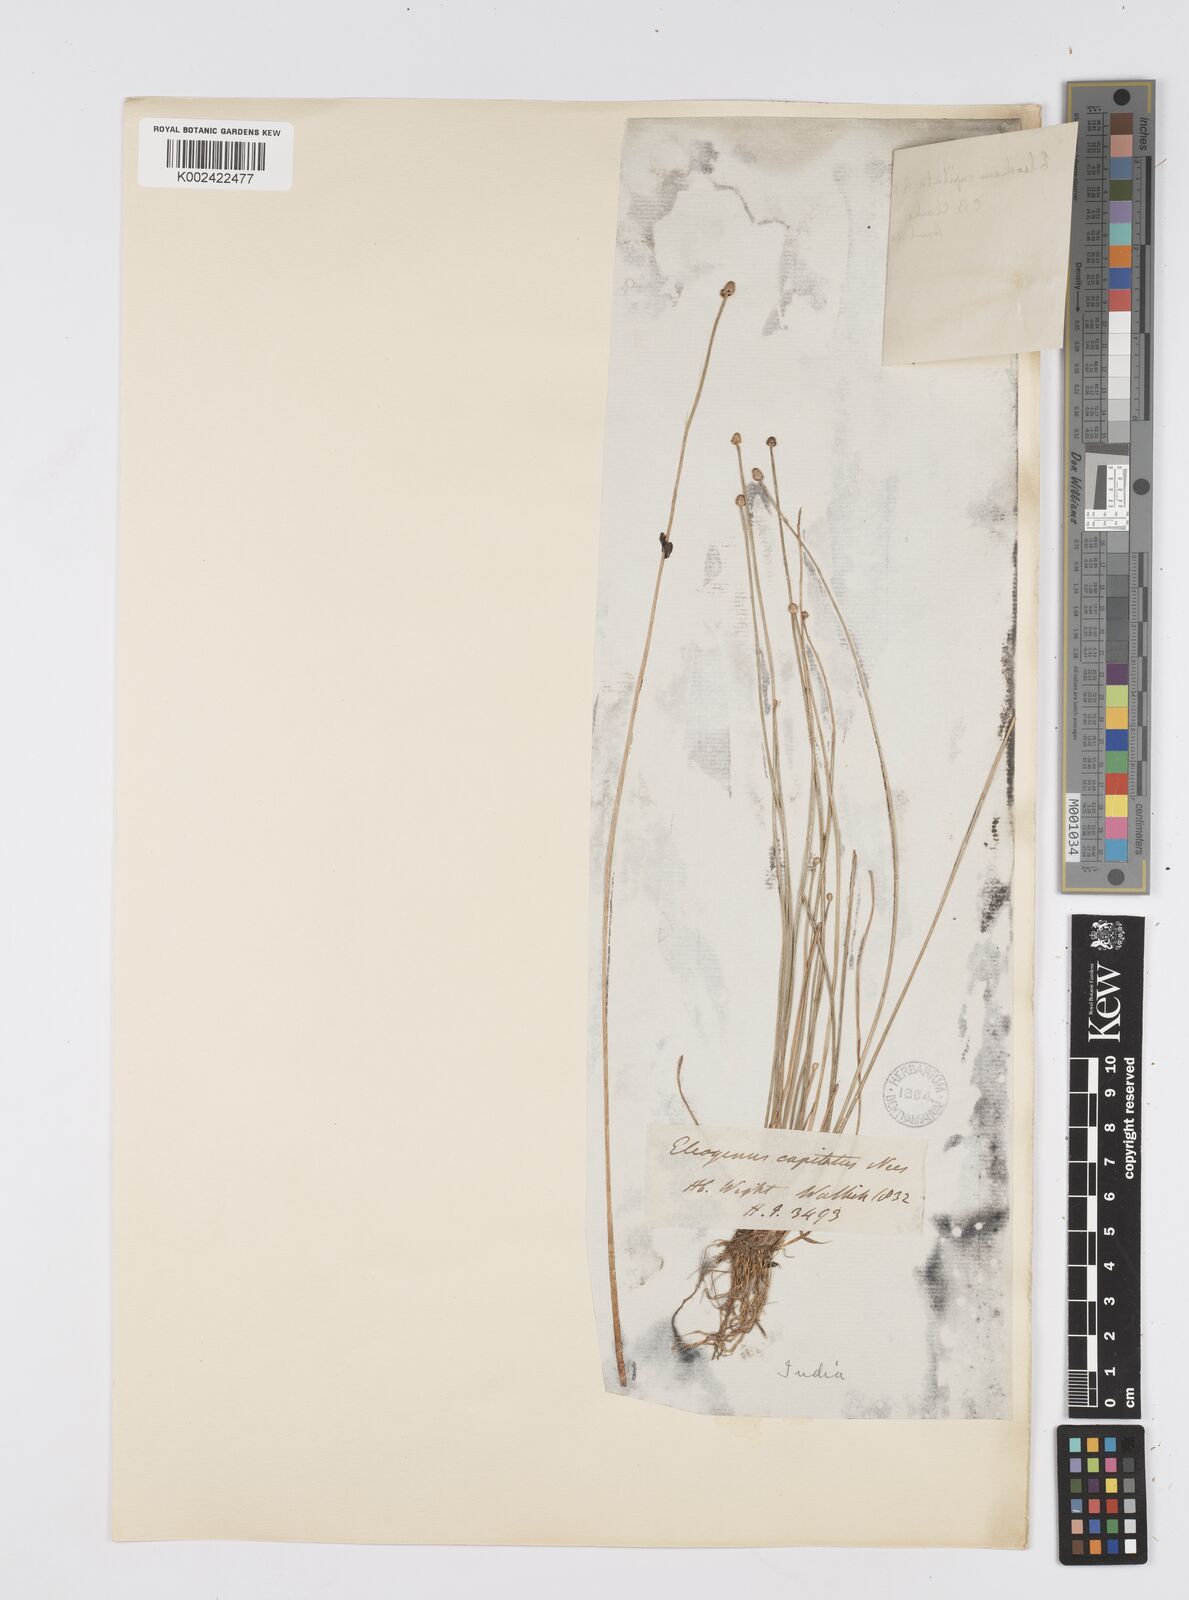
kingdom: Plantae
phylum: Tracheophyta
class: Liliopsida
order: Poales
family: Cyperaceae
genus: Eleocharis
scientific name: Eleocharis geniculata
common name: Canada spikesedge
